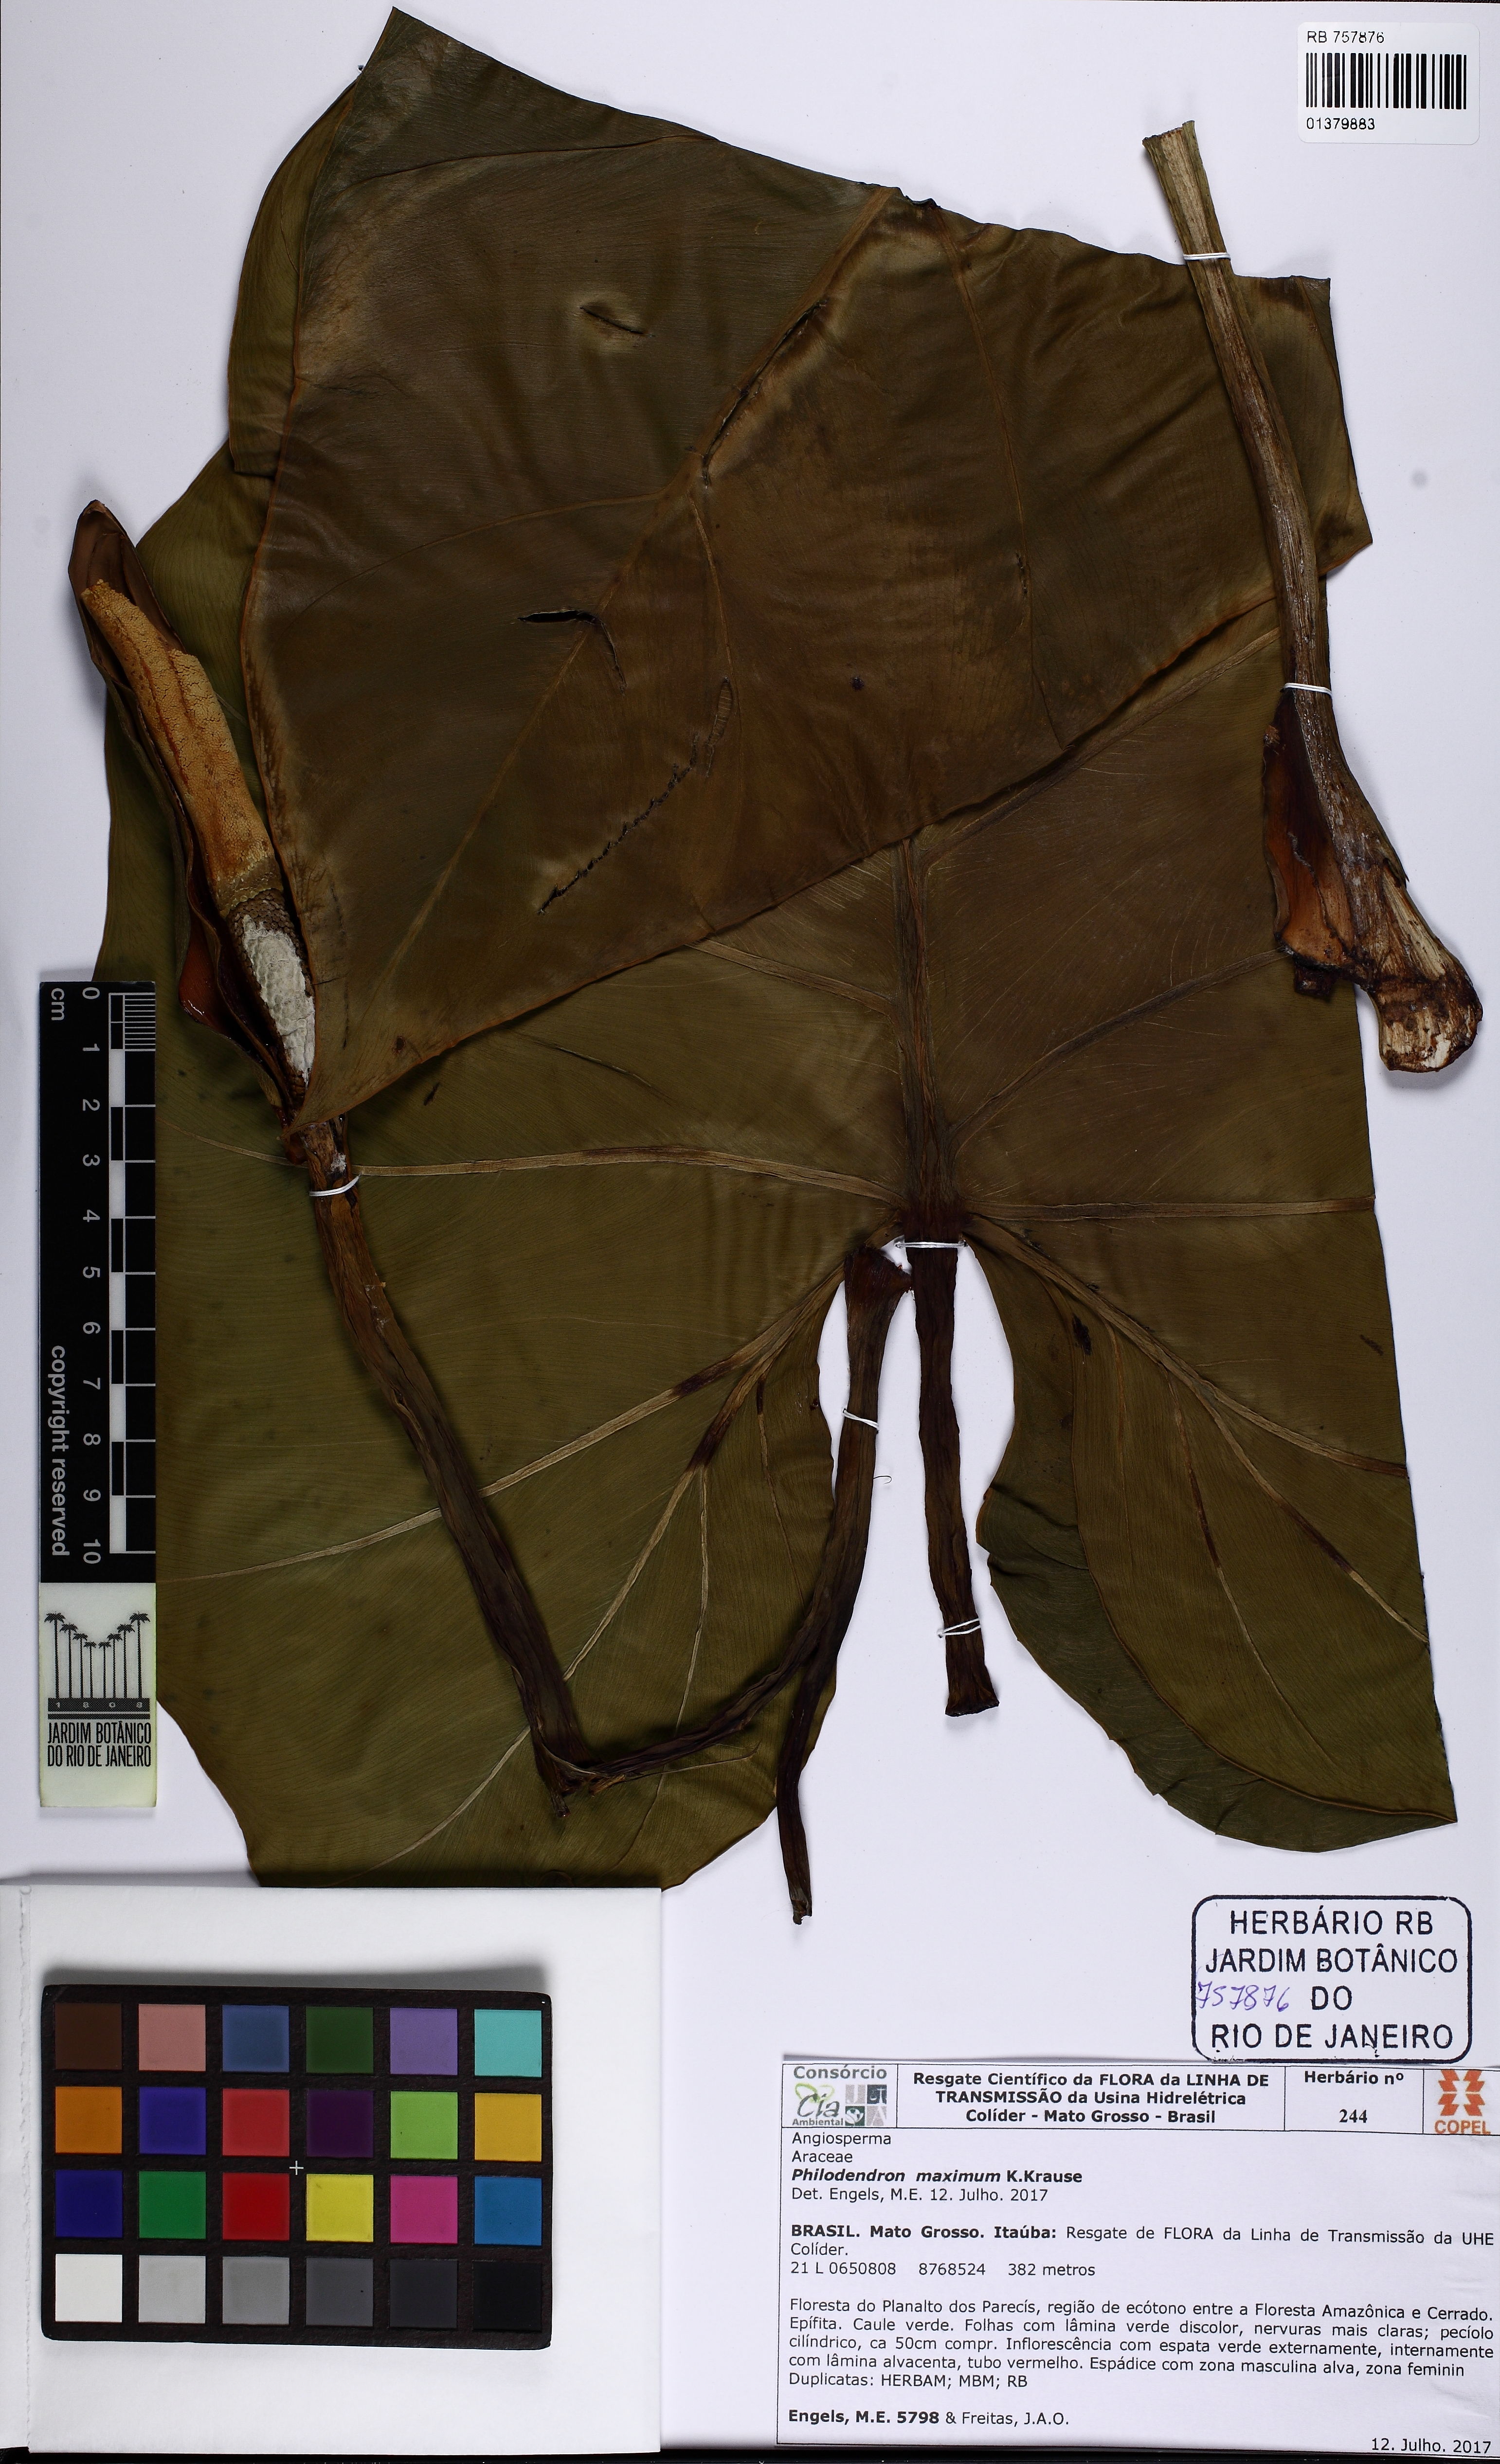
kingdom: Plantae
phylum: Tracheophyta
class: Liliopsida
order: Alismatales
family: Araceae
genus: Philodendron
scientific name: Philodendron maximum
